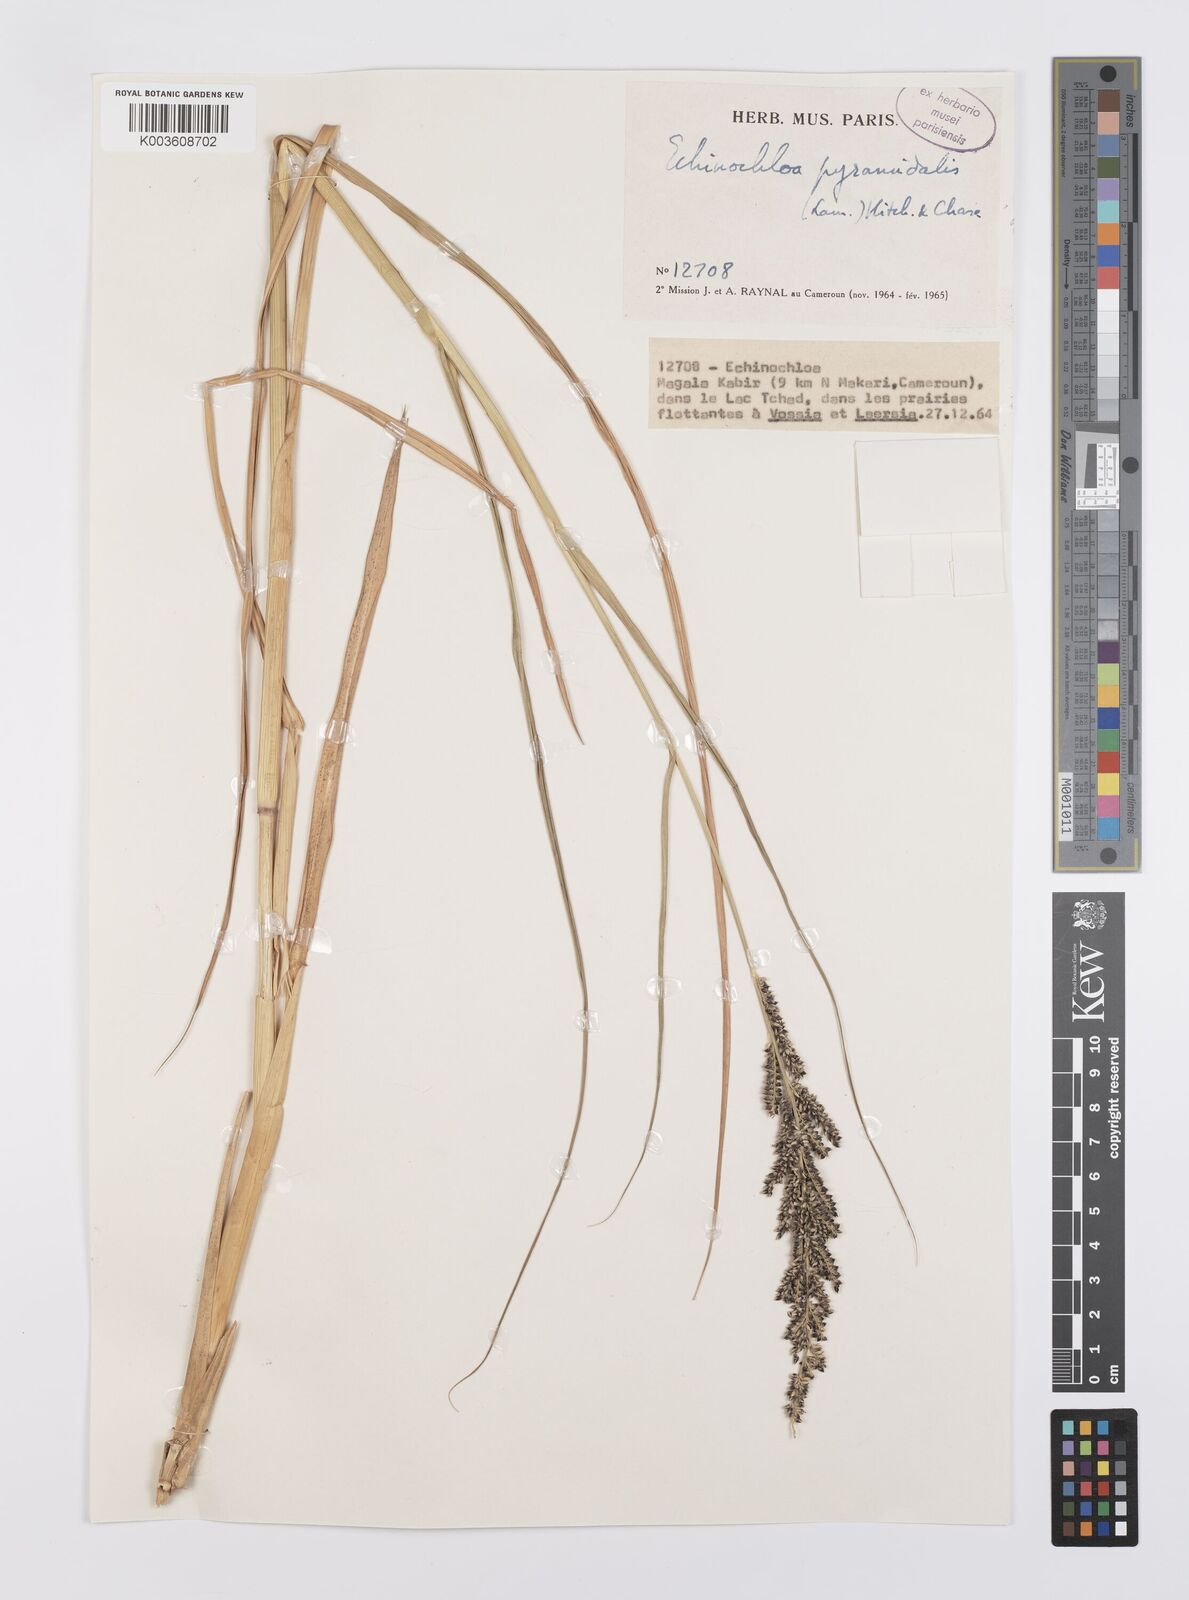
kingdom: Plantae
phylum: Tracheophyta
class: Liliopsida
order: Poales
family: Poaceae
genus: Echinochloa
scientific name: Echinochloa pyramidalis
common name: Antelope grass
